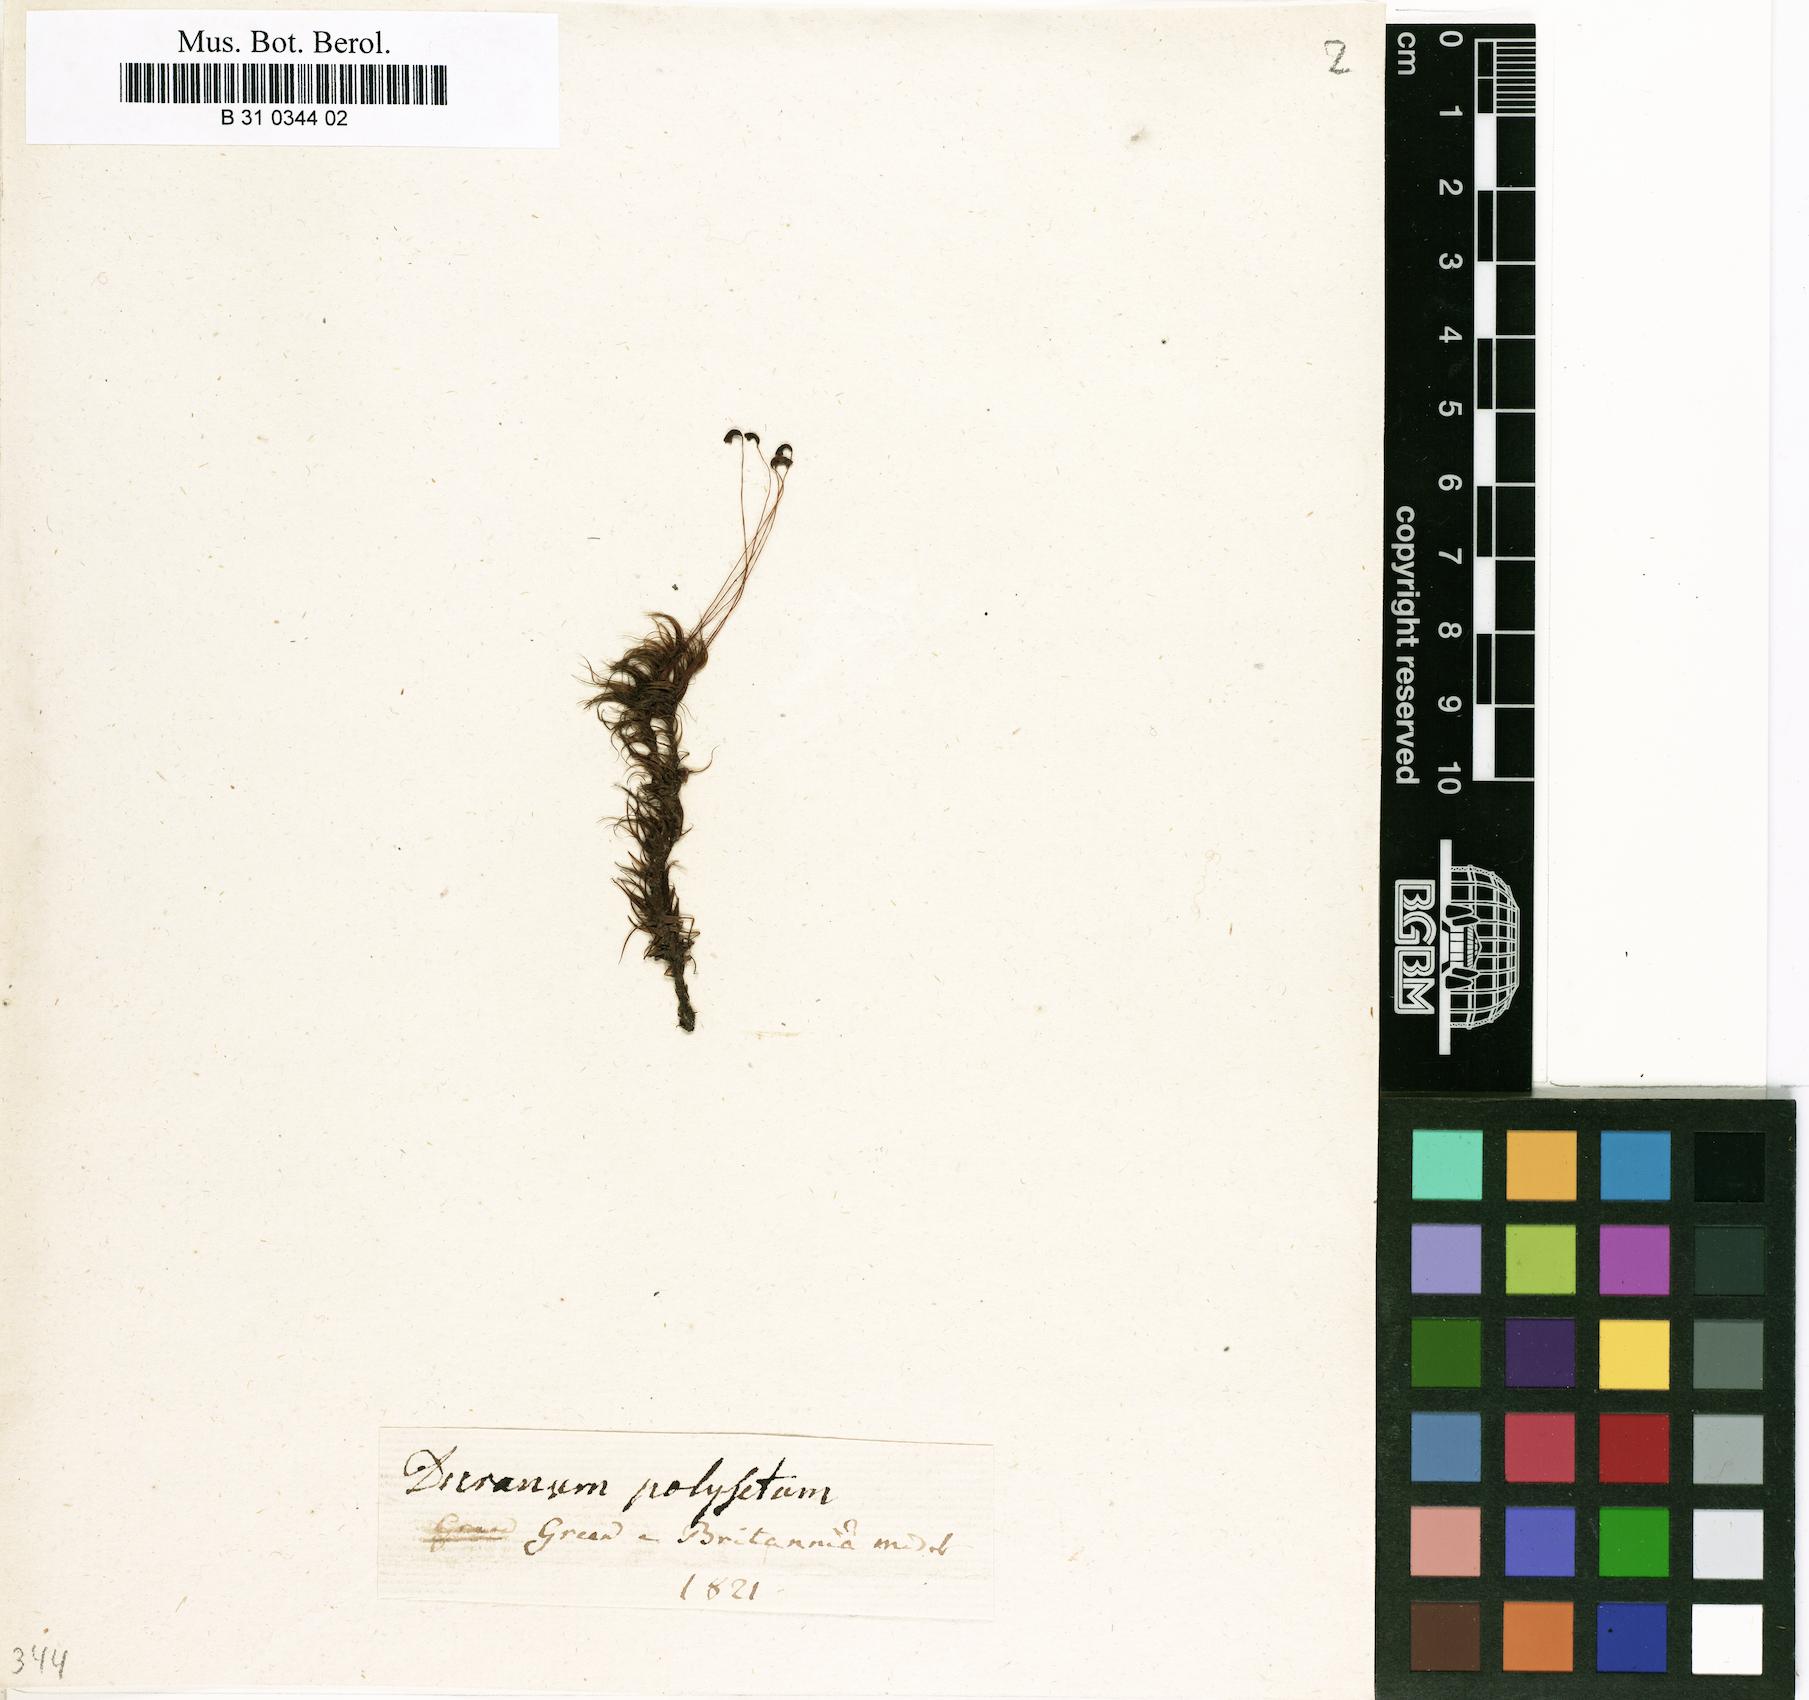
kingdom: Plantae
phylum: Bryophyta
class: Bryopsida
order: Dicranales
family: Dicranaceae
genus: Dicranum
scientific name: Dicranum polysetum
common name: Rugose fork-moss
